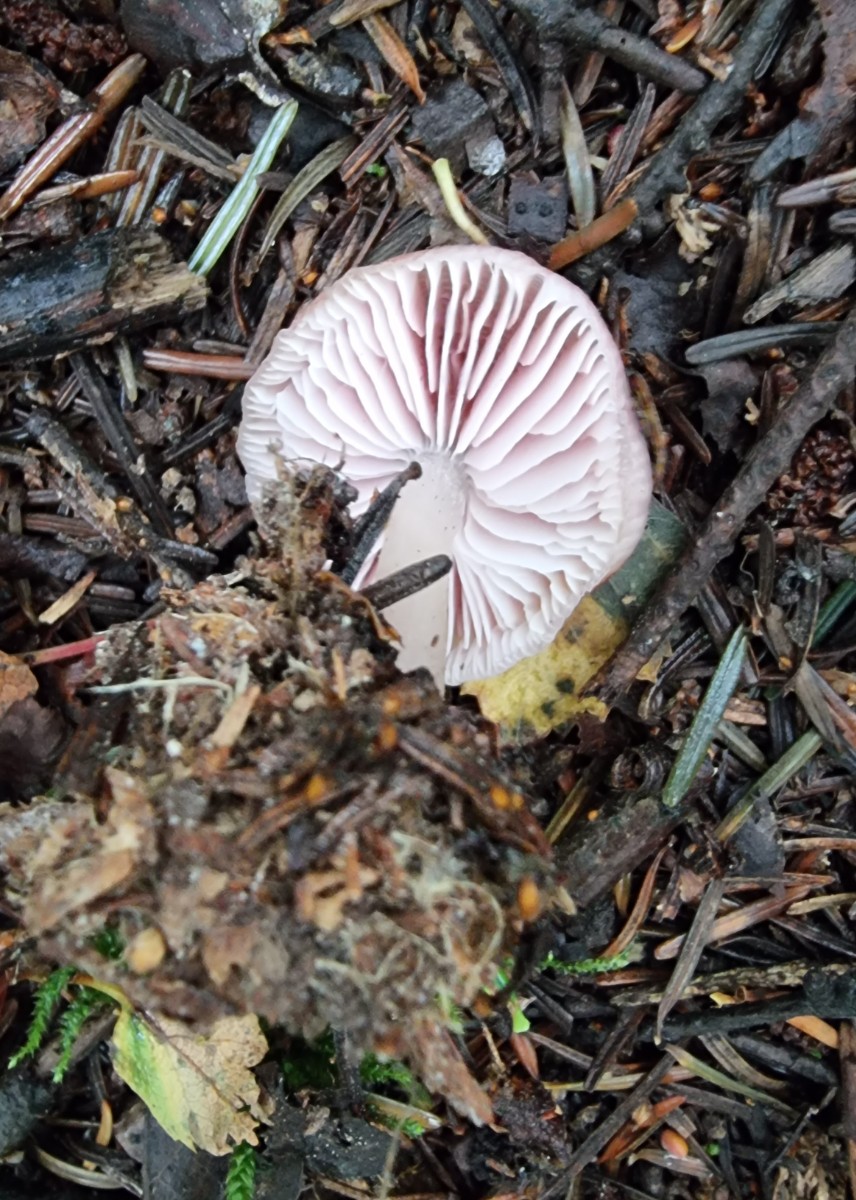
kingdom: Fungi
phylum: Basidiomycota
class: Agaricomycetes
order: Agaricales
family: Mycenaceae
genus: Mycena
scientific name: Mycena rosea
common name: rosa huesvamp
